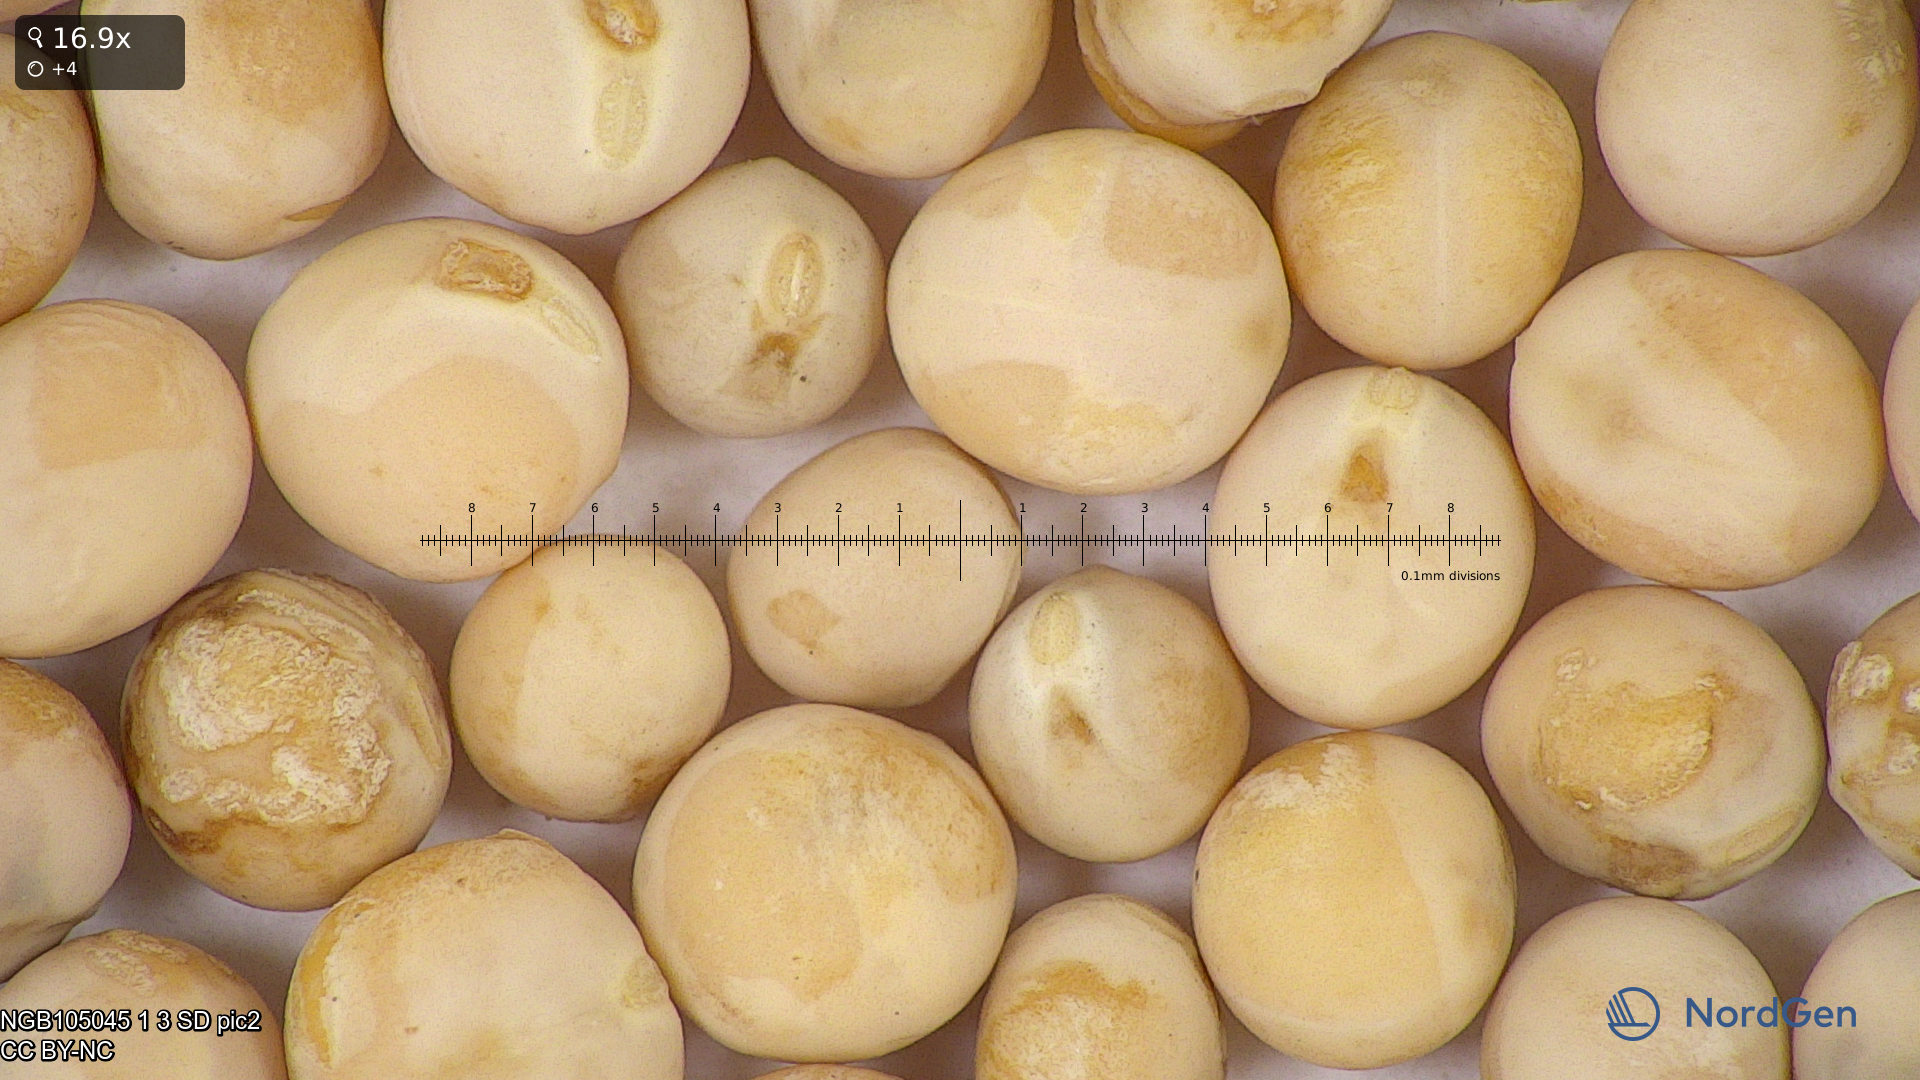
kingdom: Plantae
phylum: Tracheophyta
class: Magnoliopsida
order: Fabales
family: Fabaceae
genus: Lathyrus
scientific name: Lathyrus oleraceus
